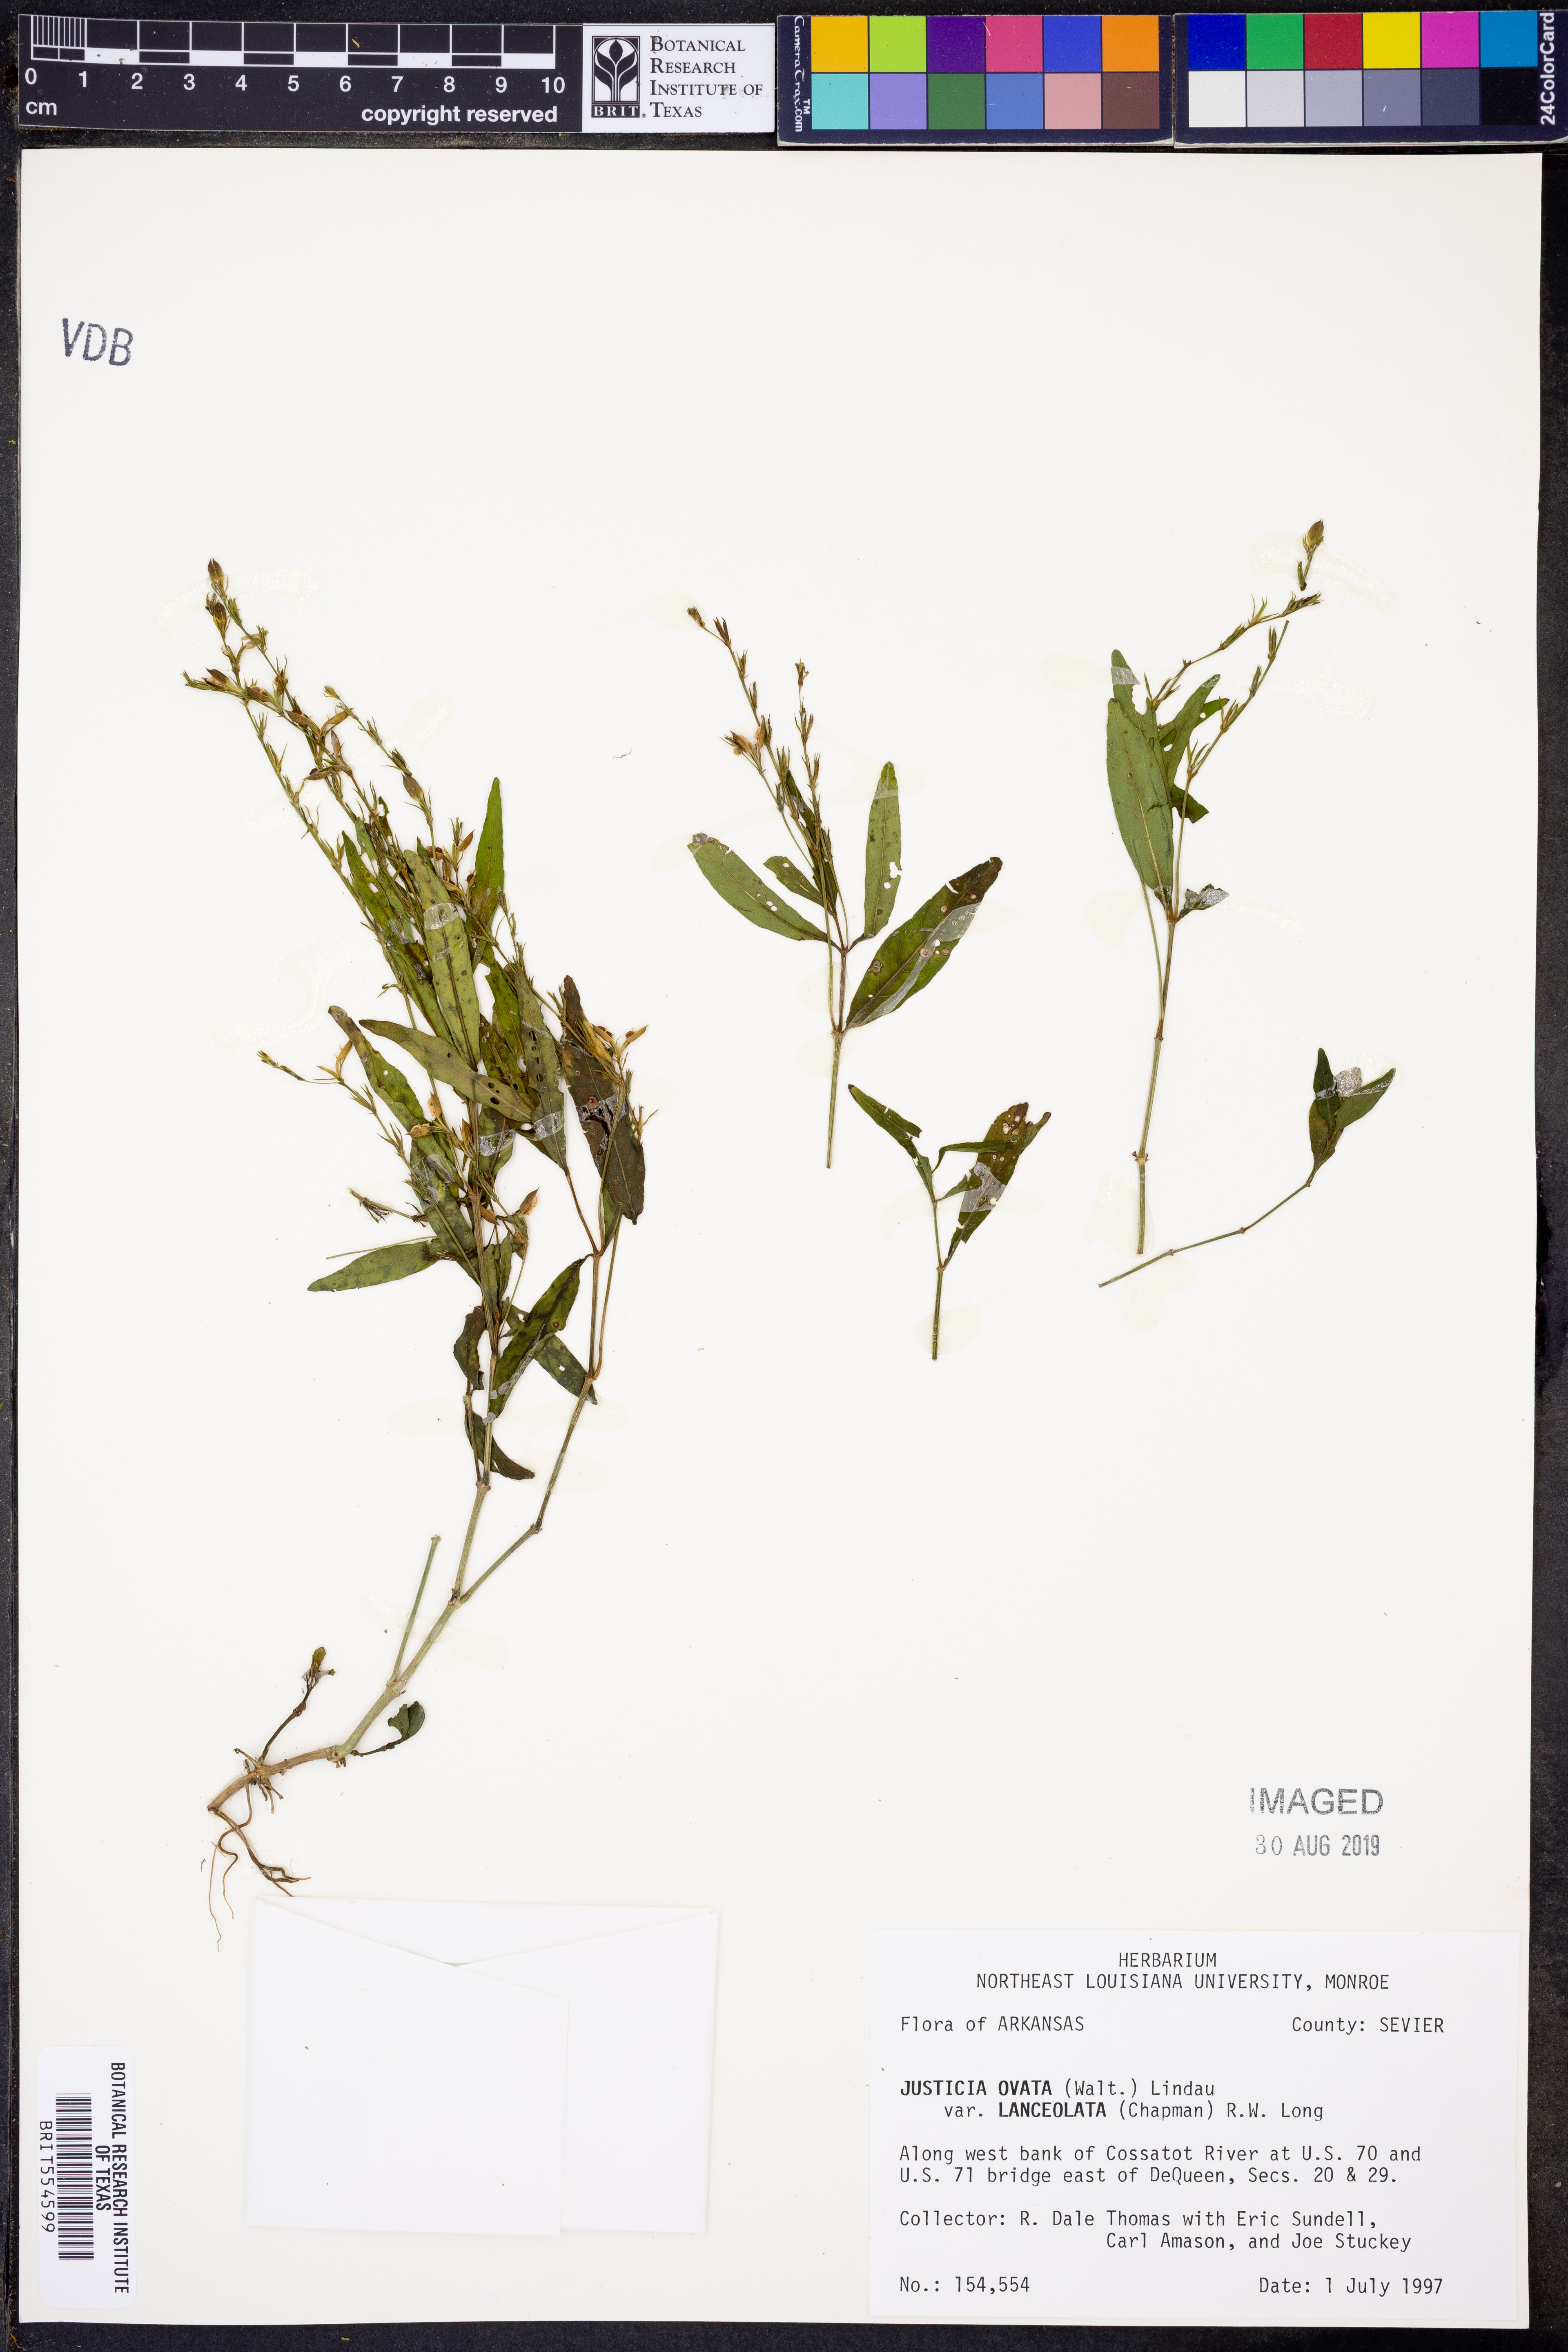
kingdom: Plantae
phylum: Tracheophyta
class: Magnoliopsida
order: Lamiales
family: Acanthaceae
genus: Justicia
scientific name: Justicia lanceolata
